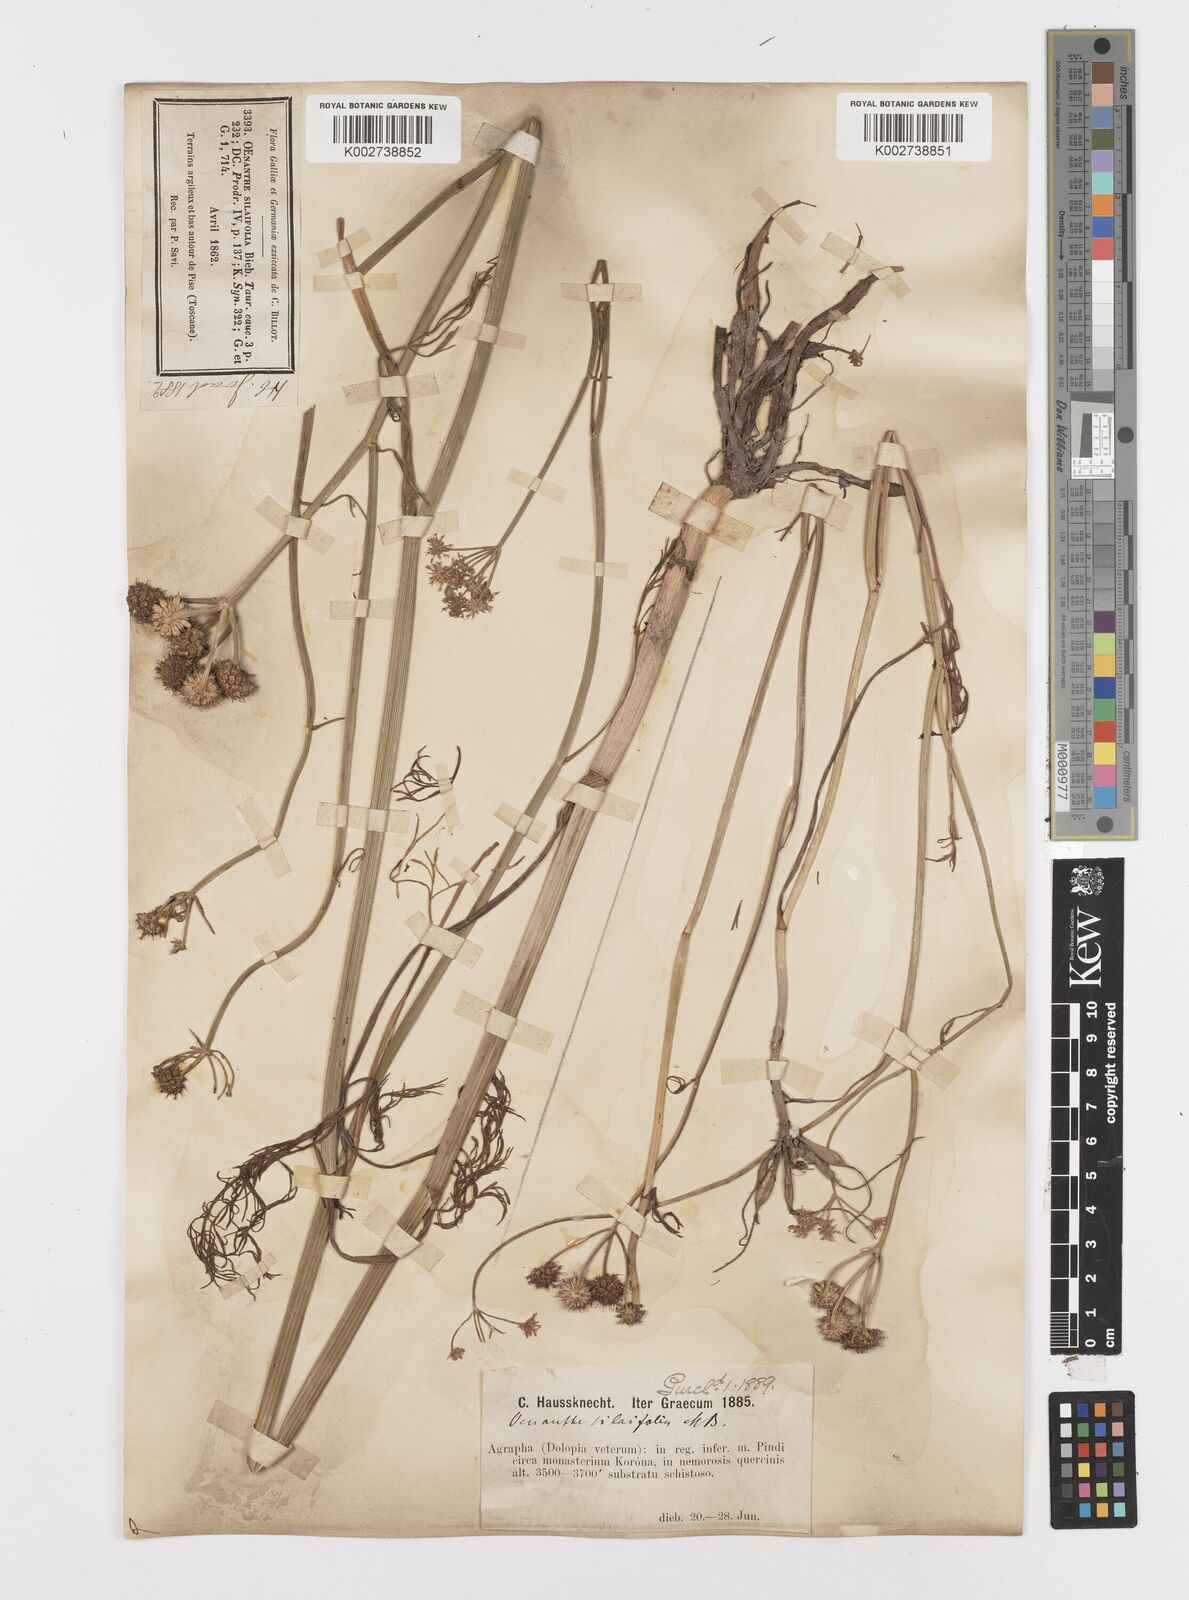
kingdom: Plantae
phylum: Tracheophyta
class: Magnoliopsida
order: Apiales
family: Apiaceae
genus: Oenanthe
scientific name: Oenanthe silaifolia
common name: Narrow-leaved water-dropwort
